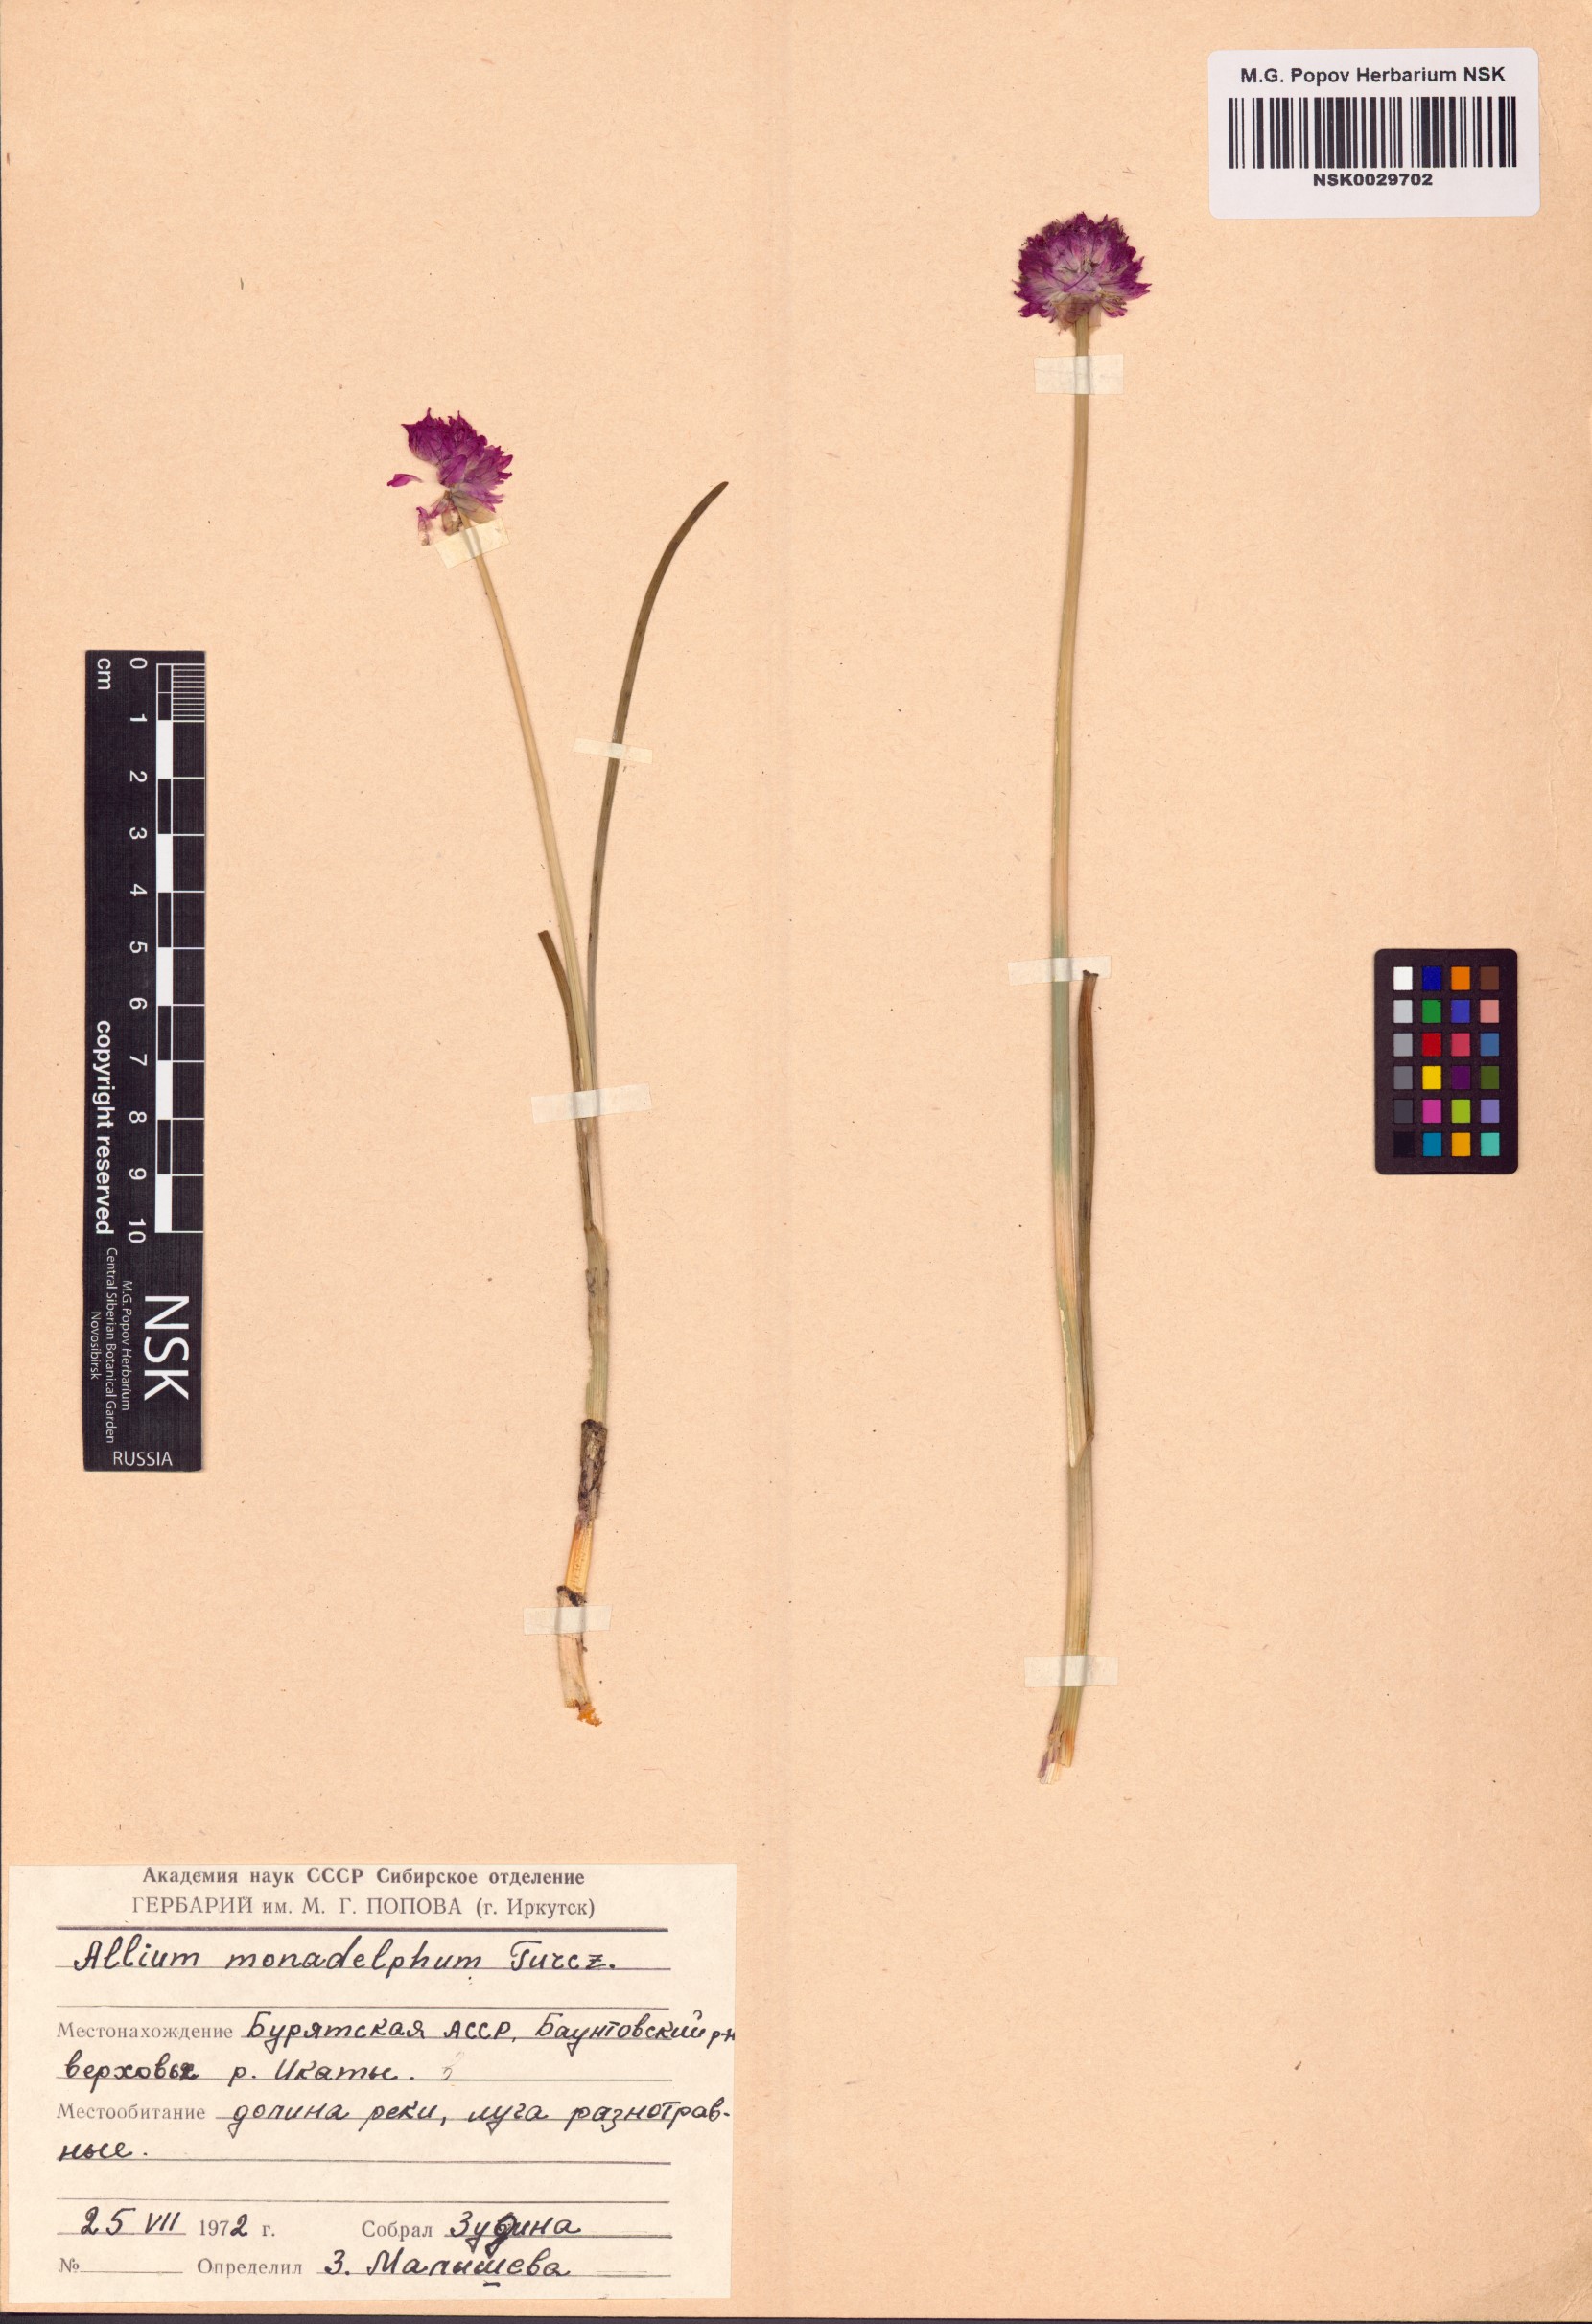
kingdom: Plantae
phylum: Tracheophyta
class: Liliopsida
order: Asparagales
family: Amaryllidaceae
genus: Allium
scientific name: Allium atrosanguineum
